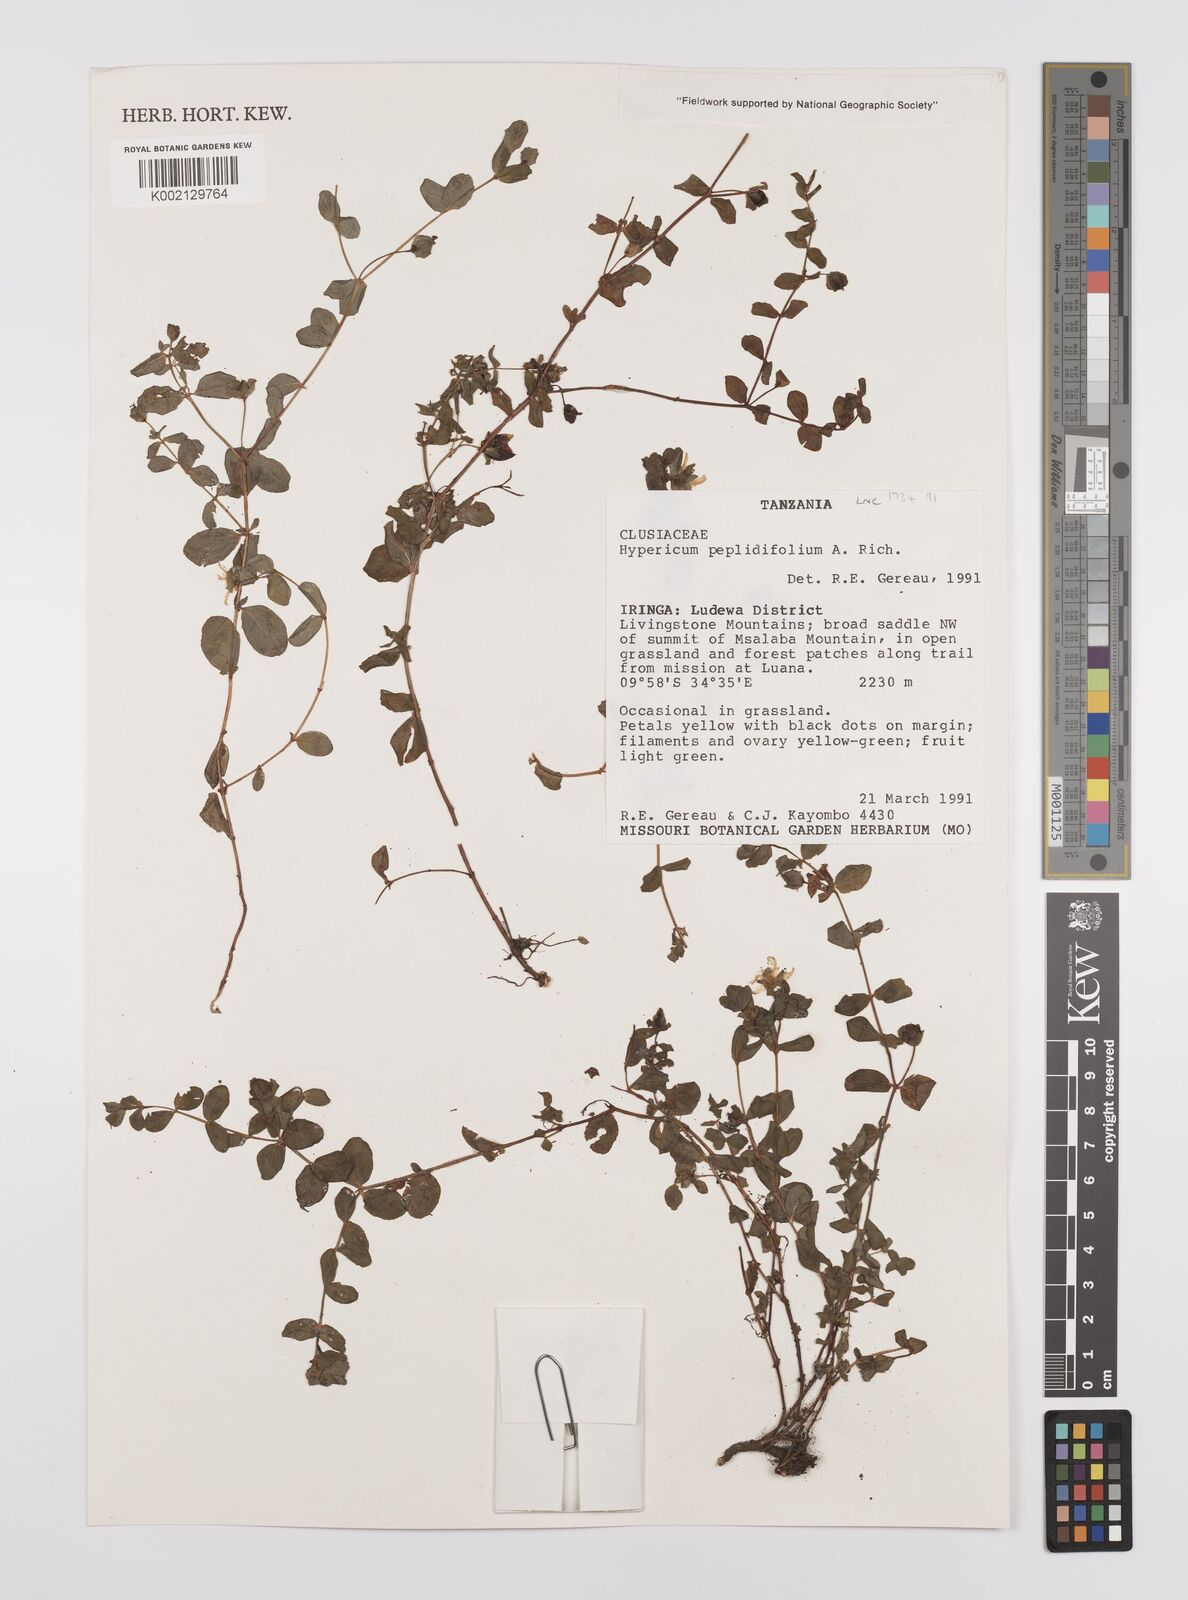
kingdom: Plantae
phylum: Tracheophyta
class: Magnoliopsida
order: Malpighiales
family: Hypericaceae
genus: Hypericum
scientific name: Hypericum peplidifolium
